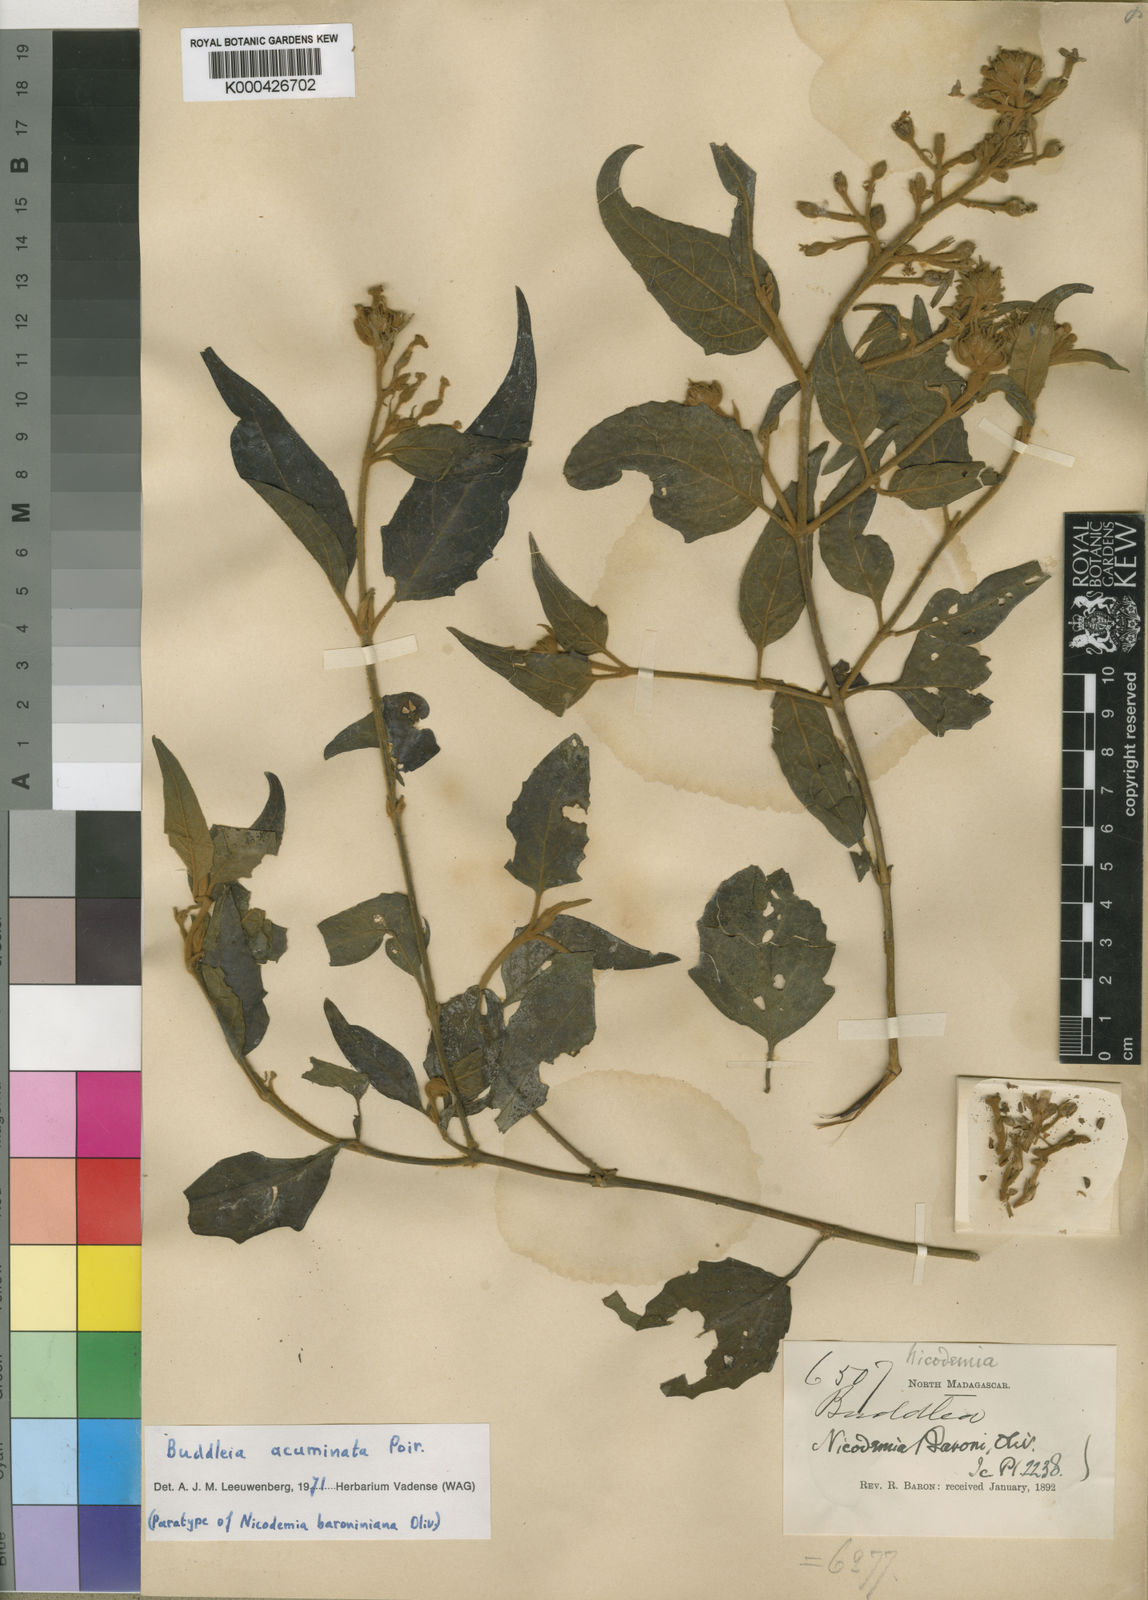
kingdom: Plantae
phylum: Tracheophyta
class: Magnoliopsida
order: Lamiales
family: Scrophulariaceae
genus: Buddleja
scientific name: Buddleja acuminata
